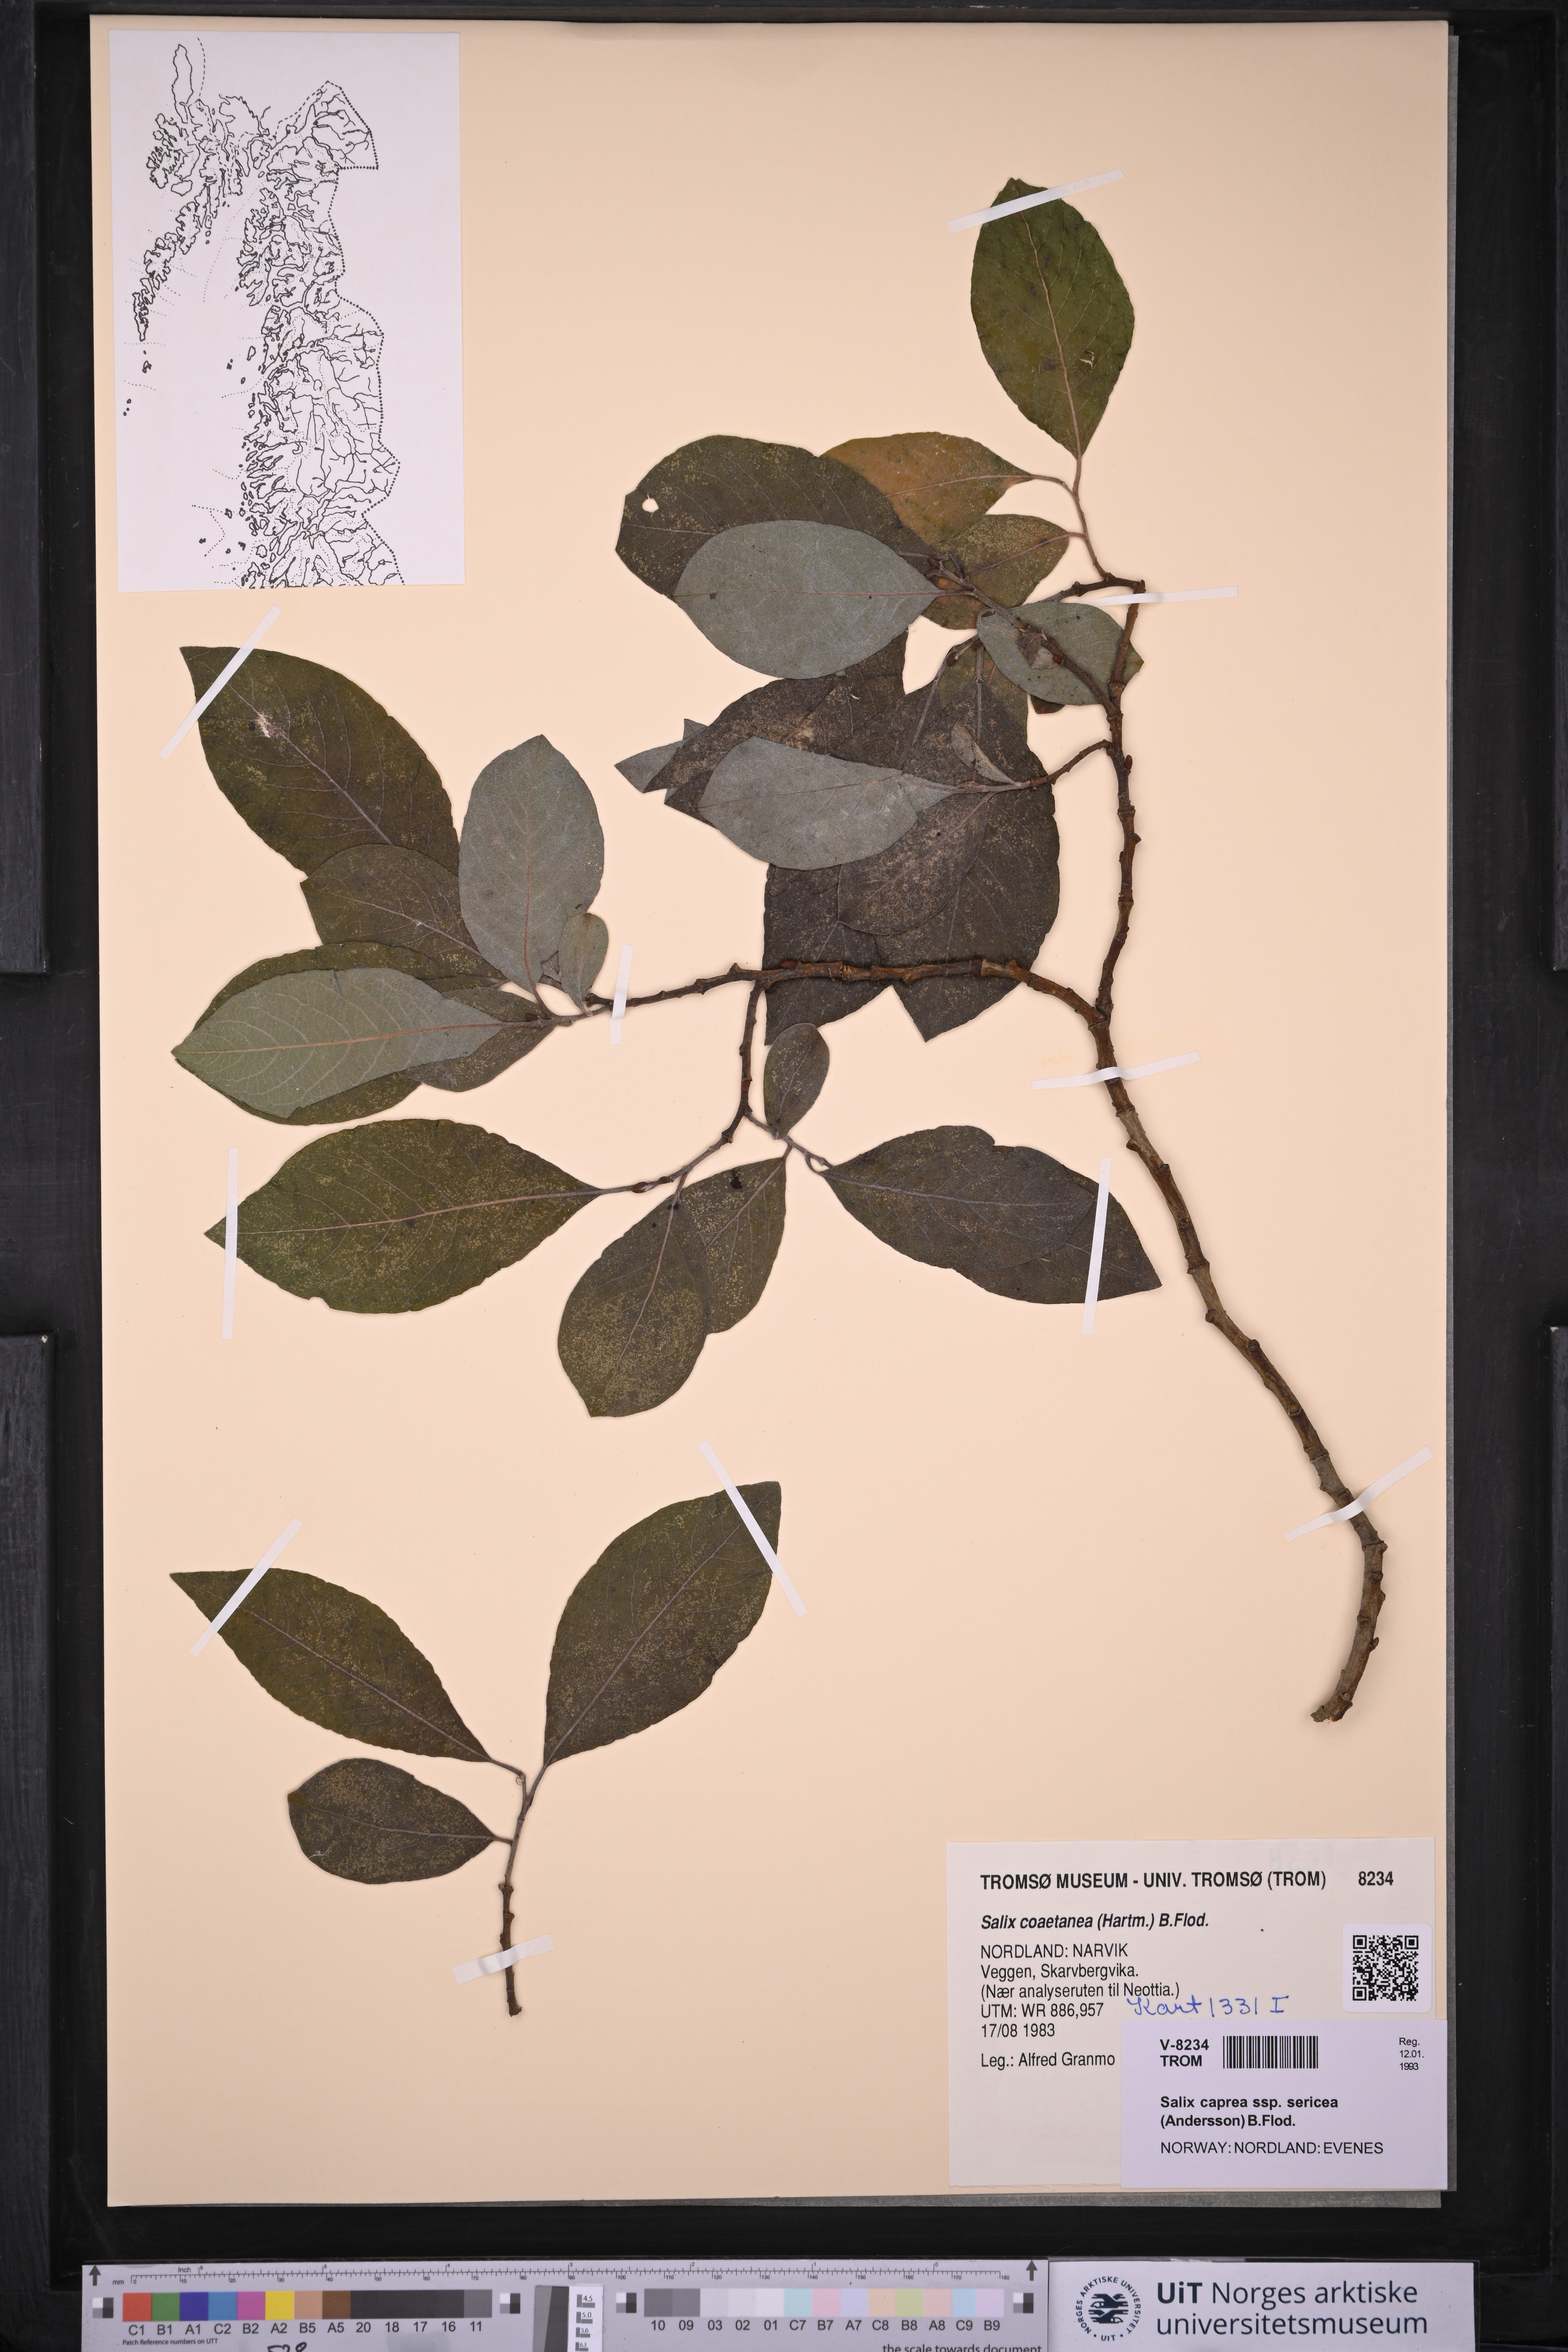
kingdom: Plantae
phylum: Tracheophyta
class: Magnoliopsida
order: Malpighiales
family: Salicaceae
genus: Salix
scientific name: Salix caprea
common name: Goat willow
